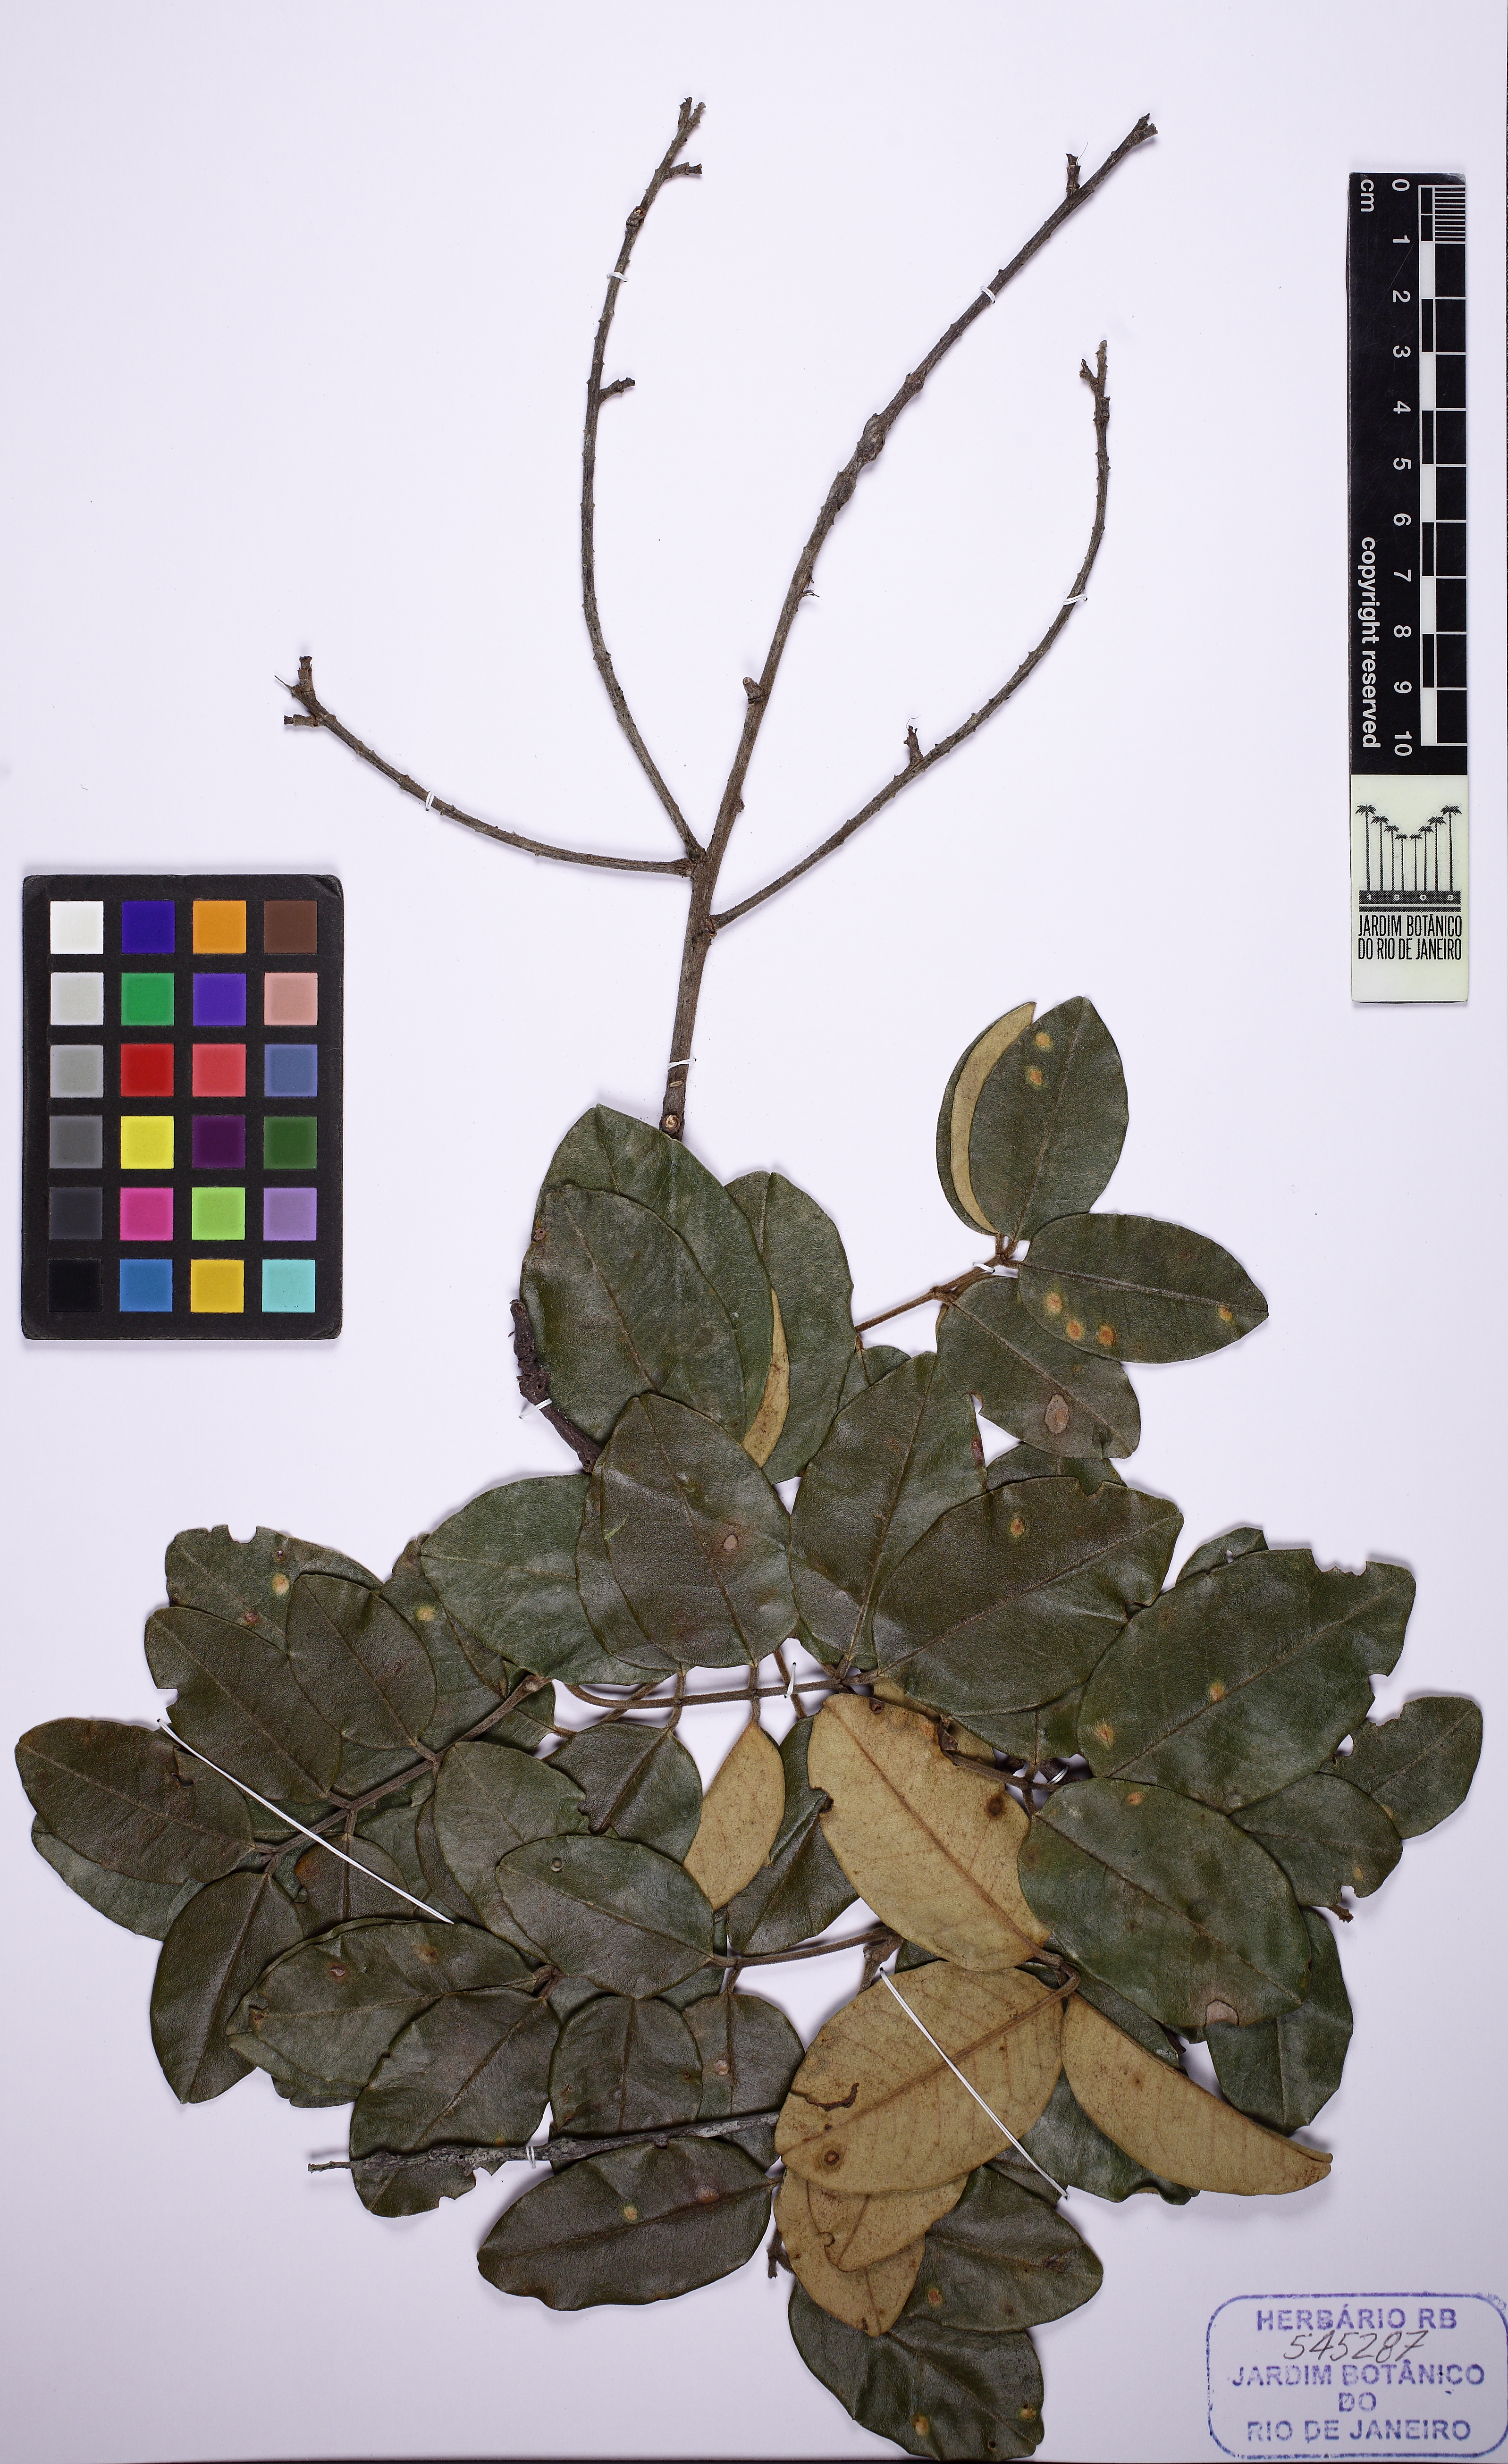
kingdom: Plantae
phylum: Tracheophyta
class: Magnoliopsida
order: Fabales
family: Fabaceae
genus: Leptolobium
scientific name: Leptolobium nitens
